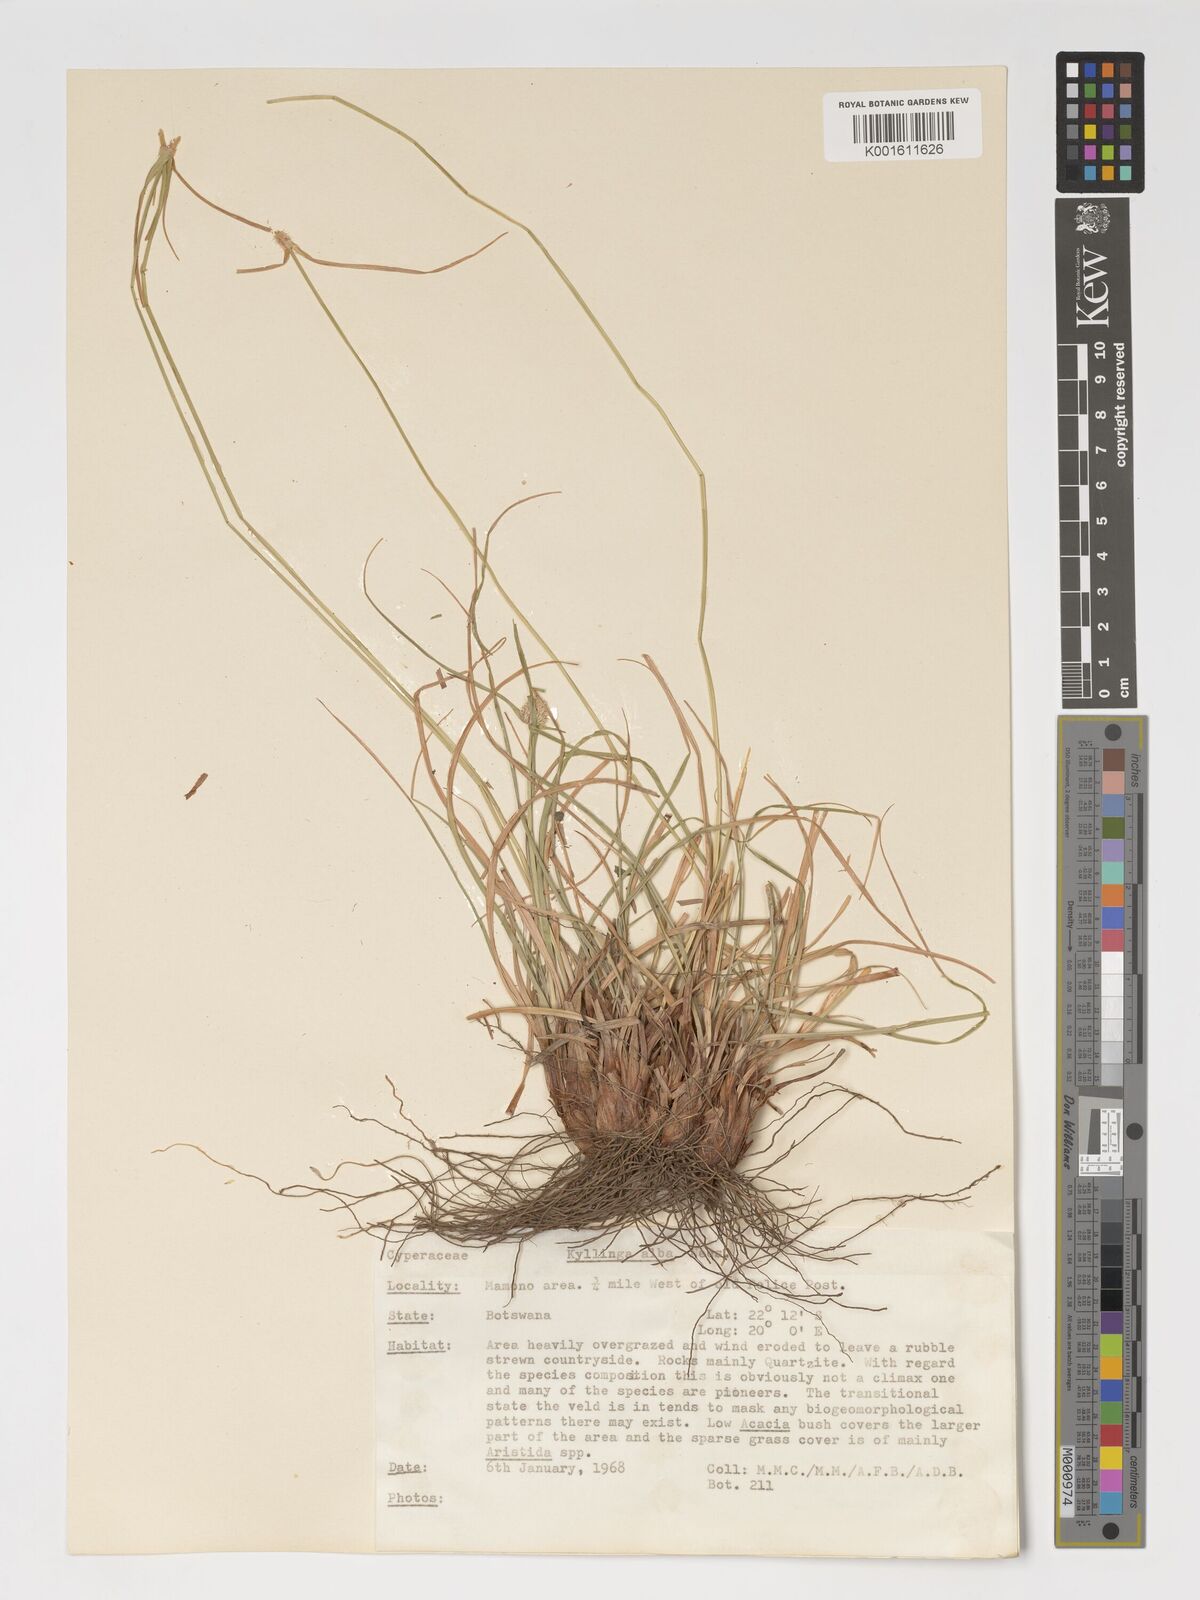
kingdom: Plantae
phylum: Tracheophyta
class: Liliopsida
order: Poales
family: Cyperaceae
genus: Cyperus
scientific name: Cyperus alatus
